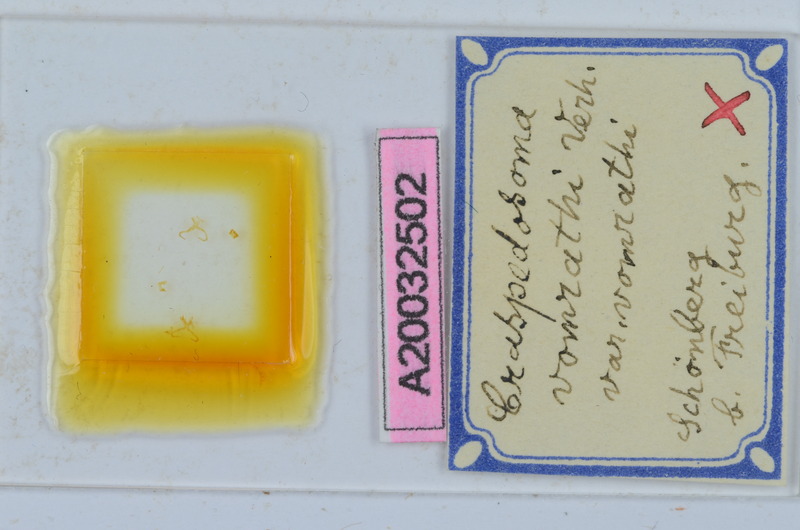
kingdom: Animalia
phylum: Arthropoda
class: Diplopoda
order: Chordeumatida
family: Craspedosomatidae
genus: Craspedosoma
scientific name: Craspedosoma rawlinsii
